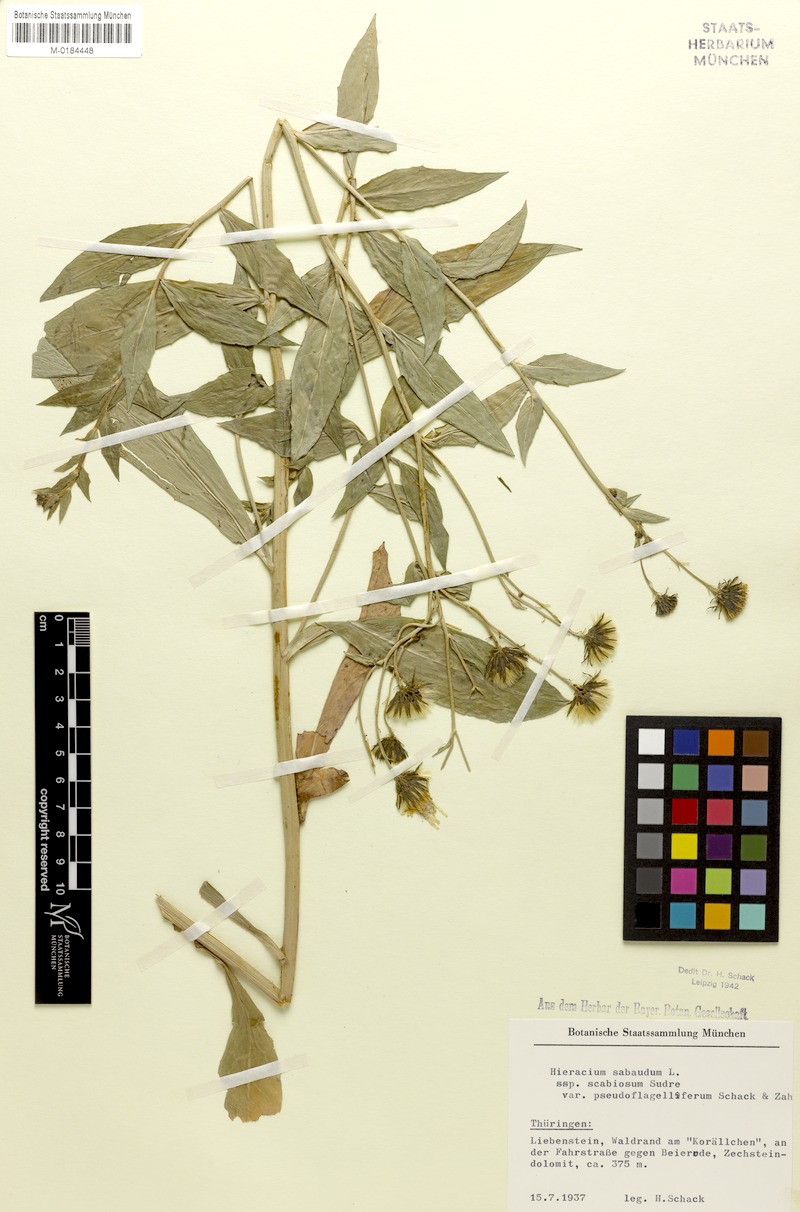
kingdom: Plantae
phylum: Tracheophyta
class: Magnoliopsida
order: Asterales
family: Asteraceae
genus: Hieracium
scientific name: Hieracium sabaudum
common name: New england hawkweed
